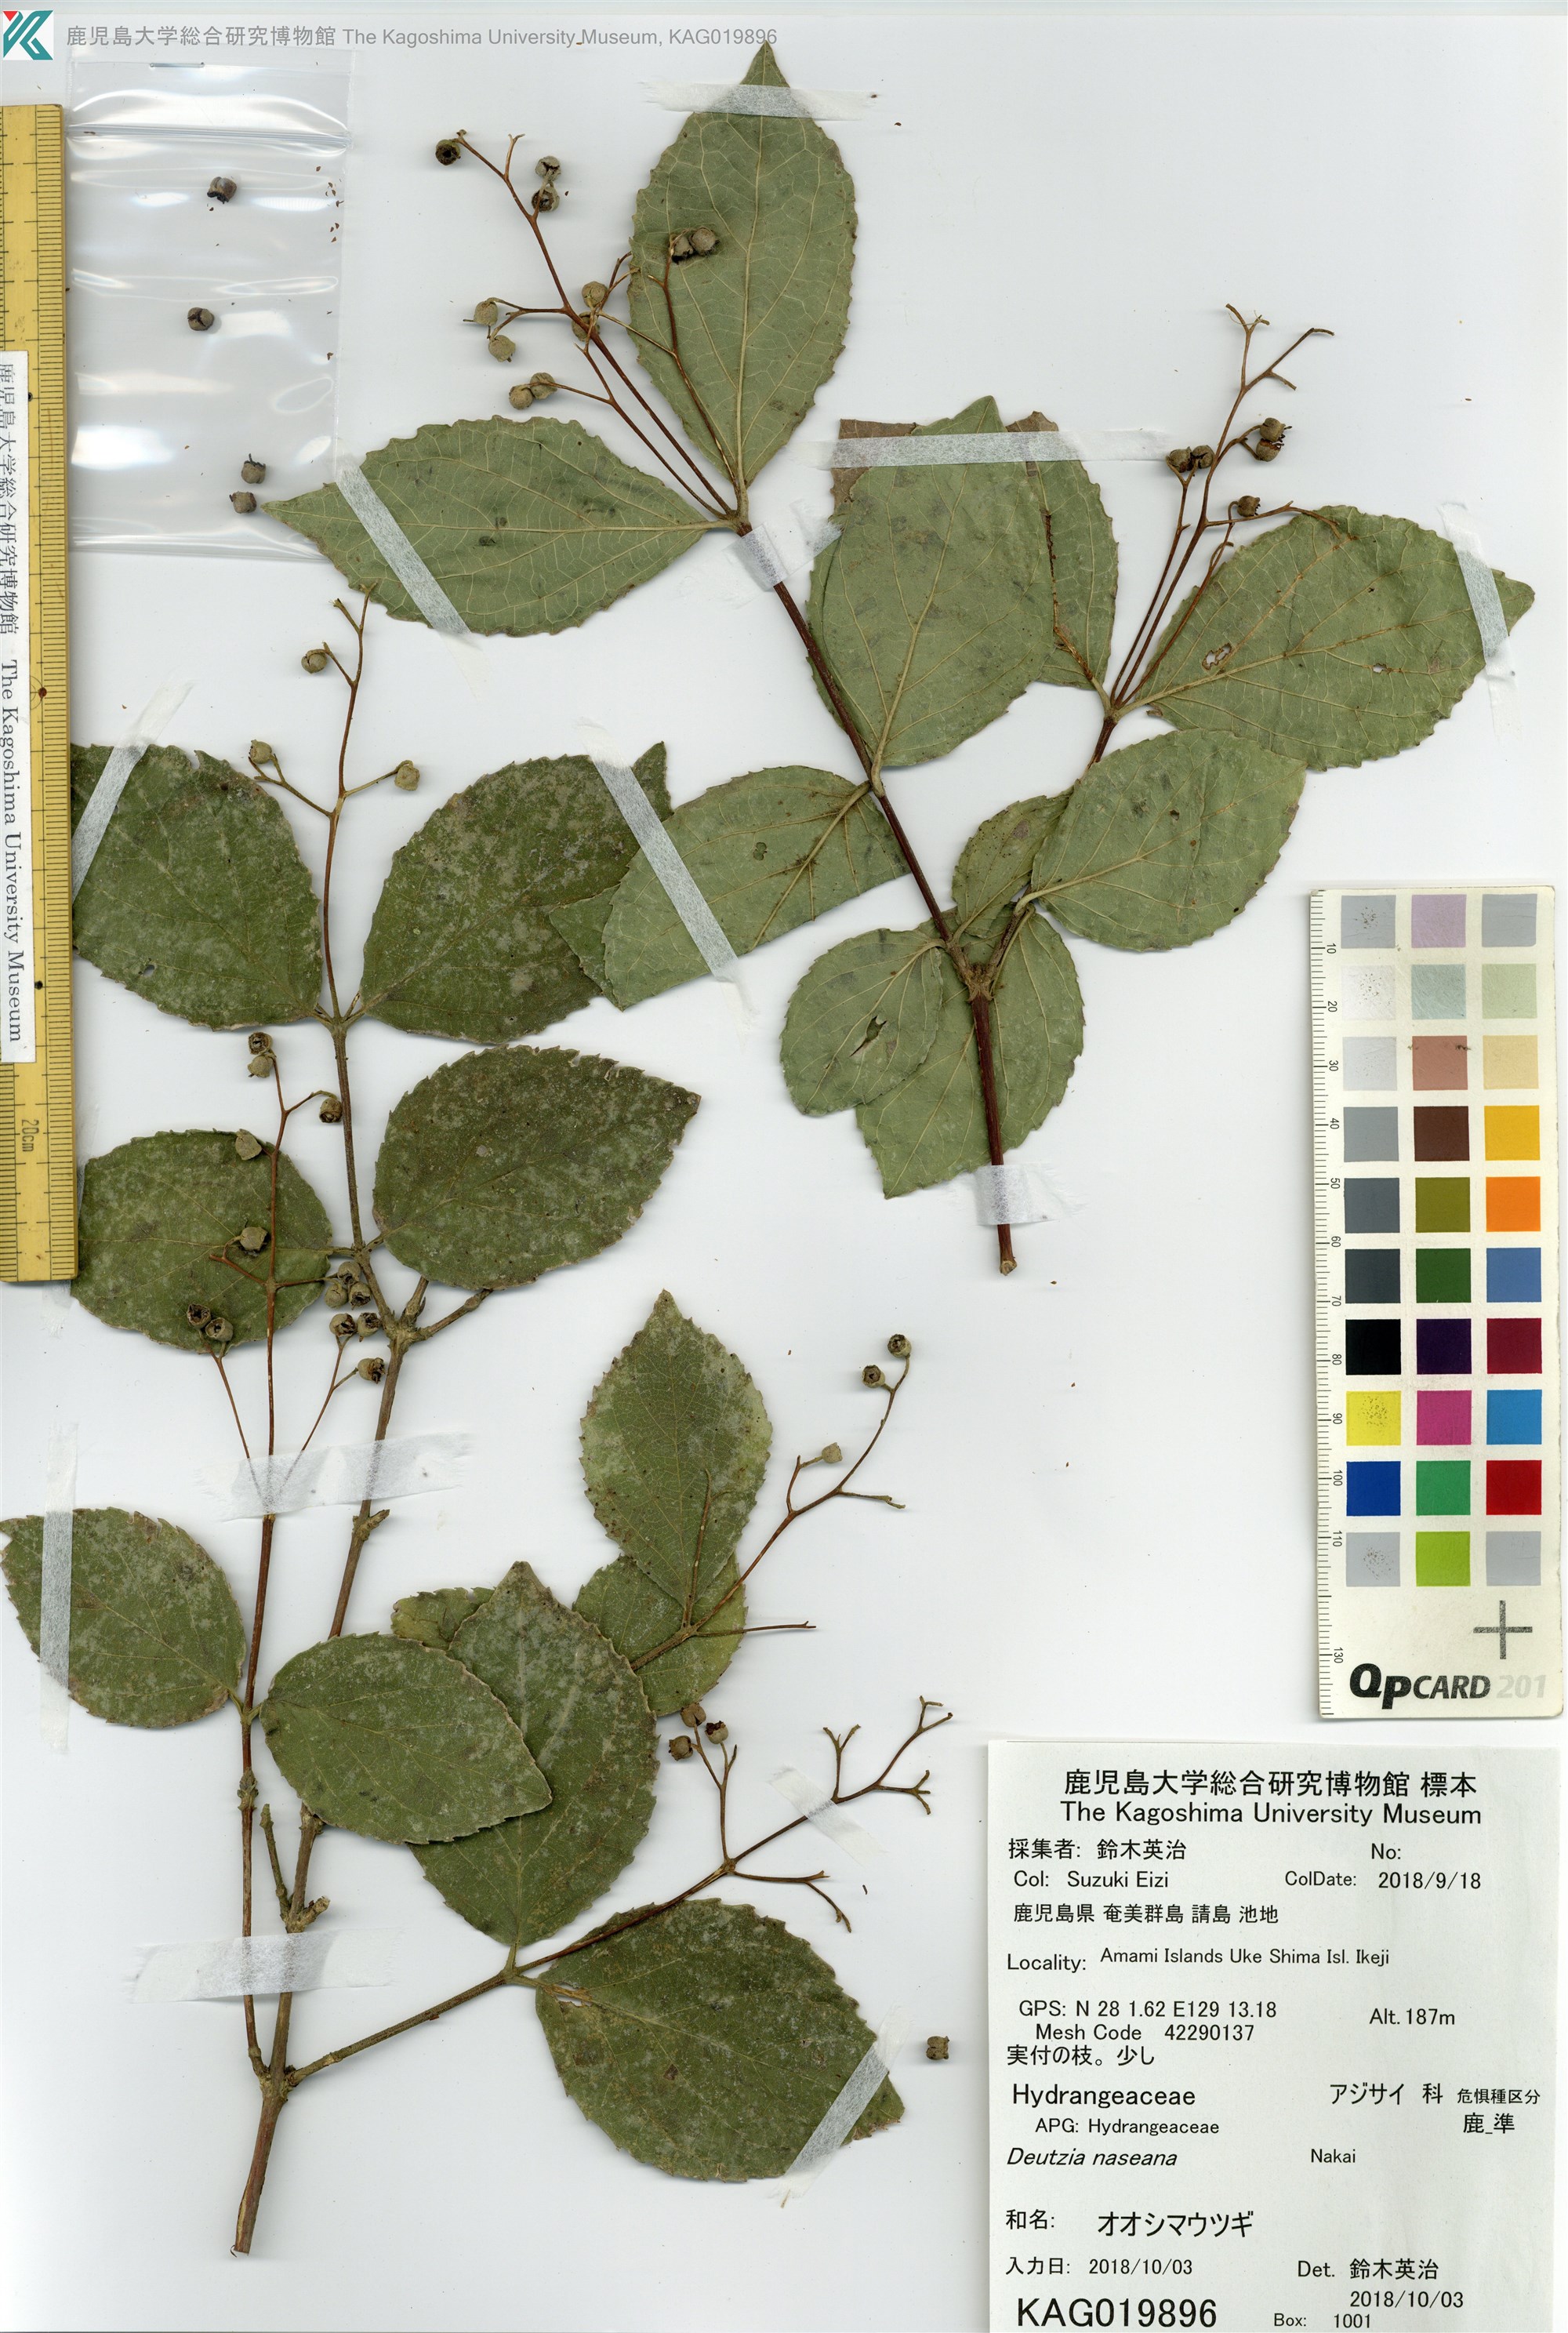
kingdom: Plantae
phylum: Tracheophyta
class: Magnoliopsida
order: Cornales
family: Hydrangeaceae
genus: Deutzia
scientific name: Deutzia naseana
